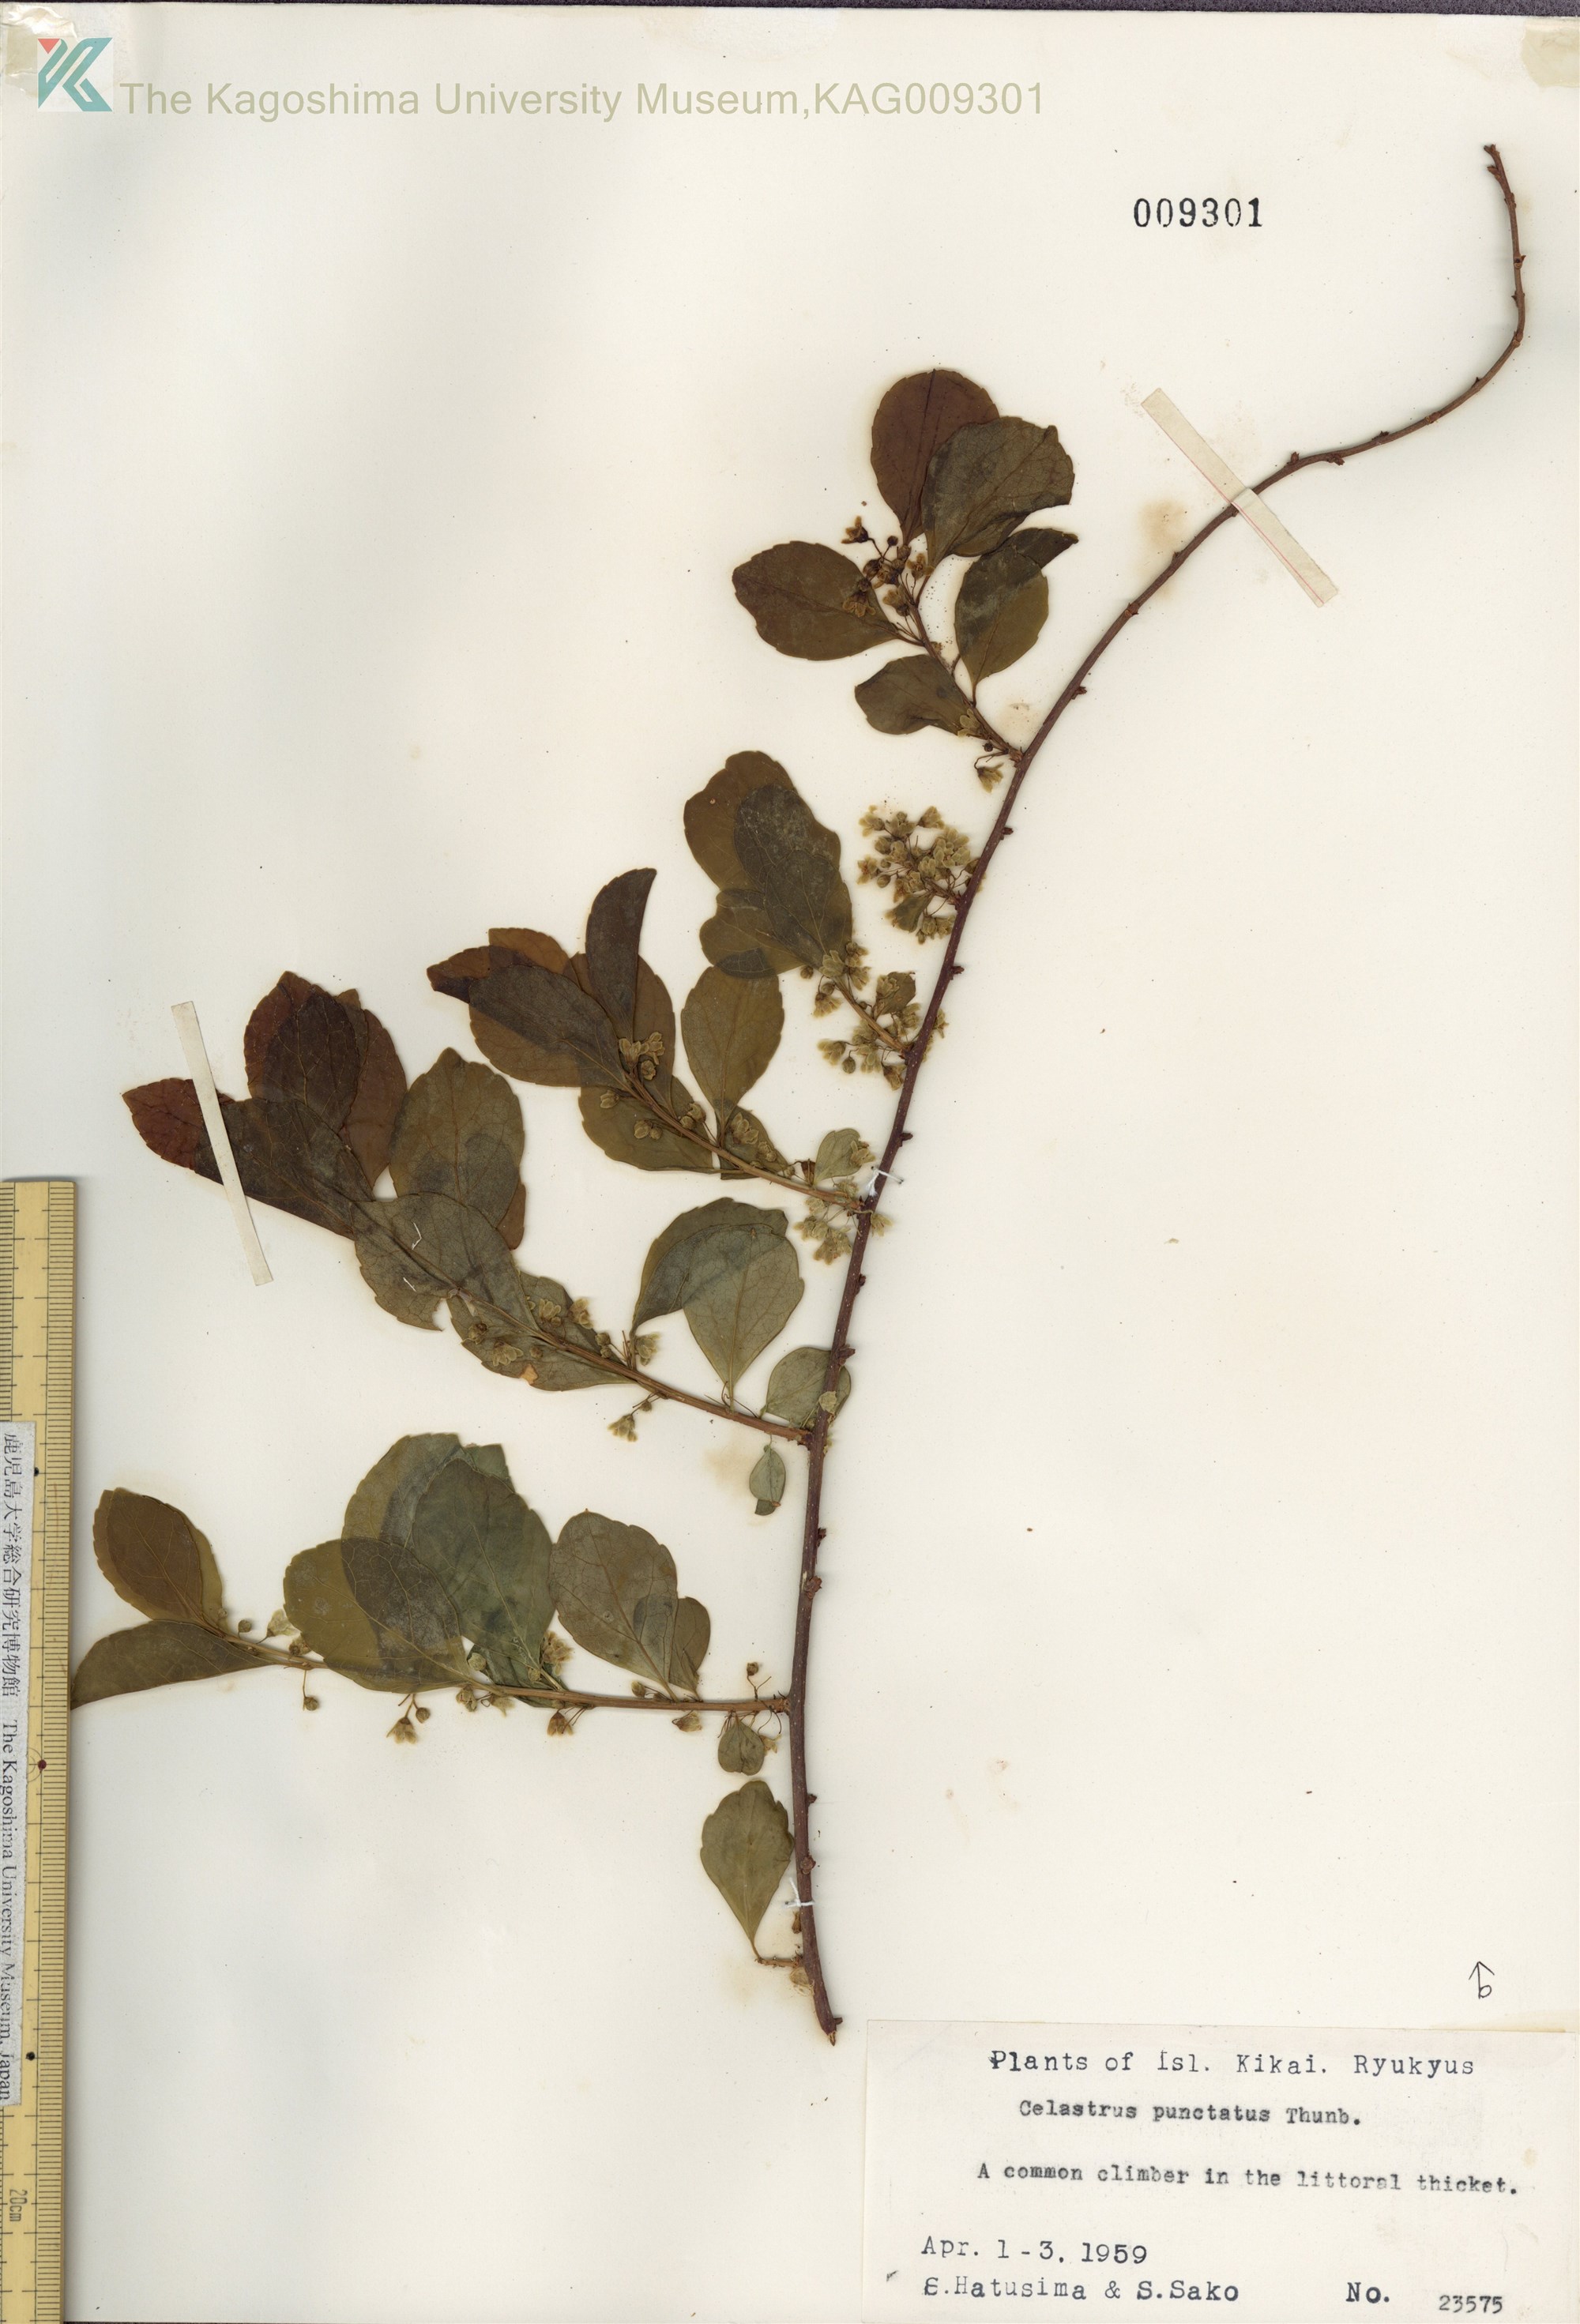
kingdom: Plantae
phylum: Tracheophyta
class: Magnoliopsida
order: Celastrales
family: Celastraceae
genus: Celastrus
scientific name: Celastrus punctatus
